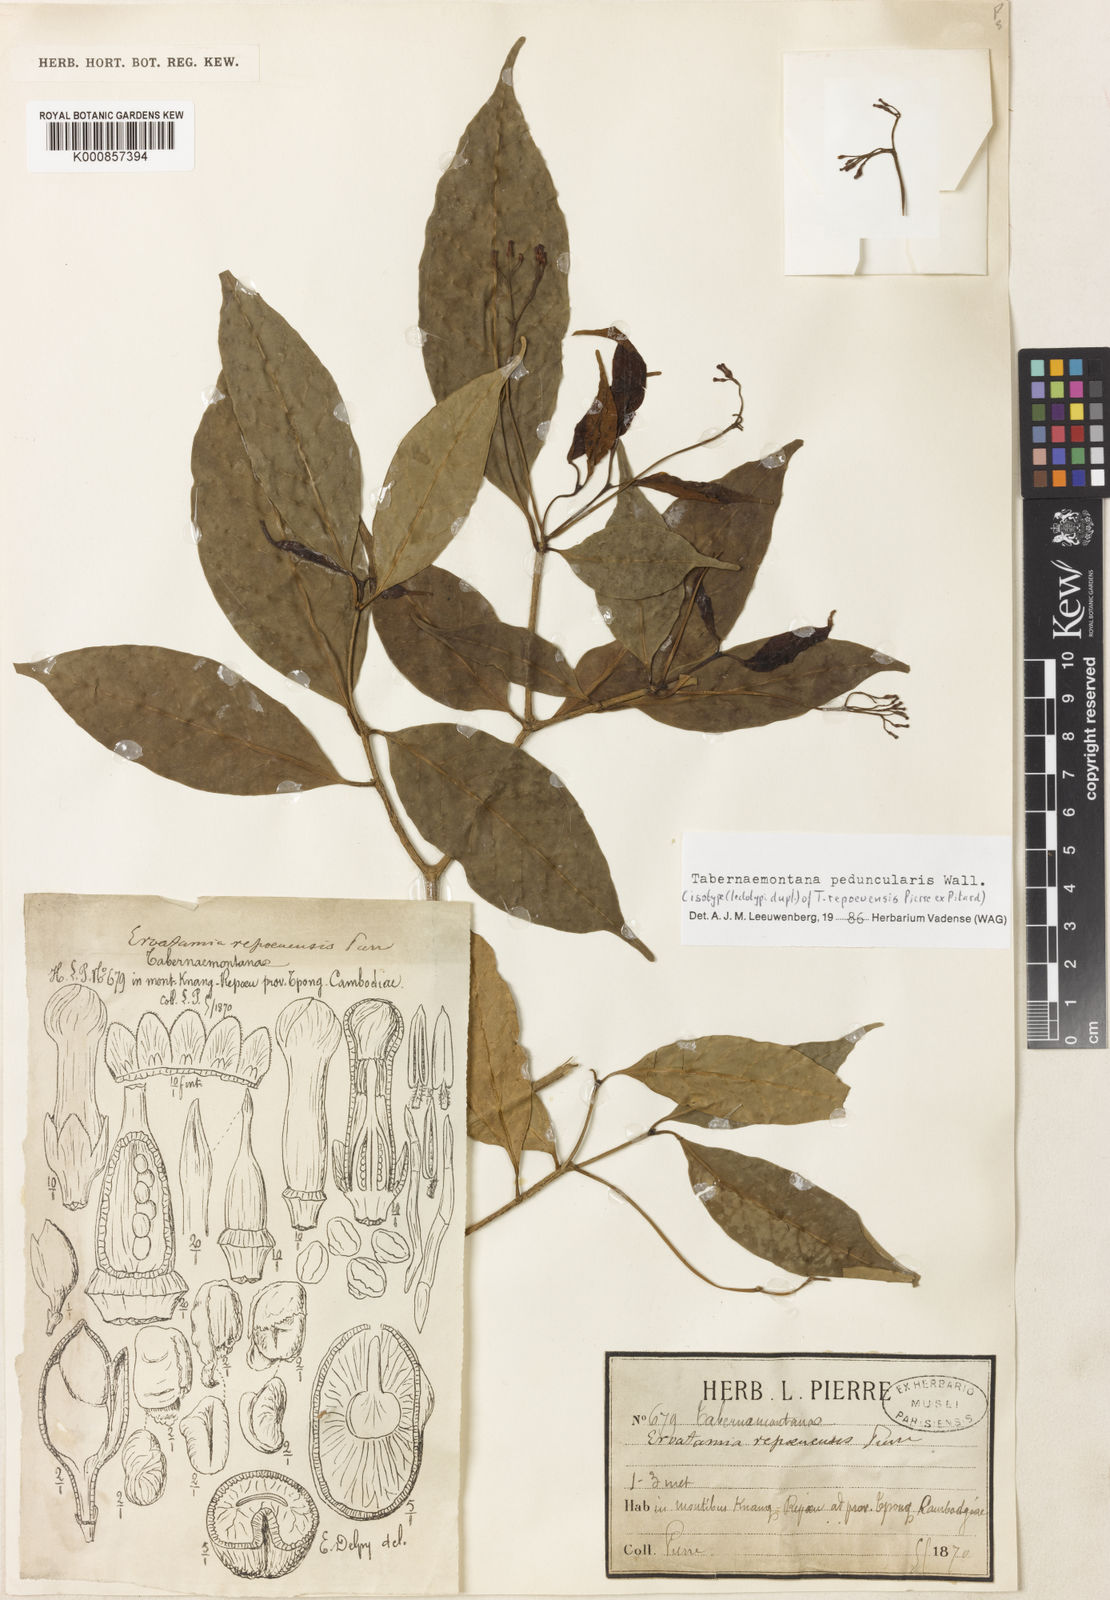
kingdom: Plantae
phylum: Tracheophyta
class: Magnoliopsida
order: Gentianales
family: Apocynaceae
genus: Tabernaemontana
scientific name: Tabernaemontana peduncularis
